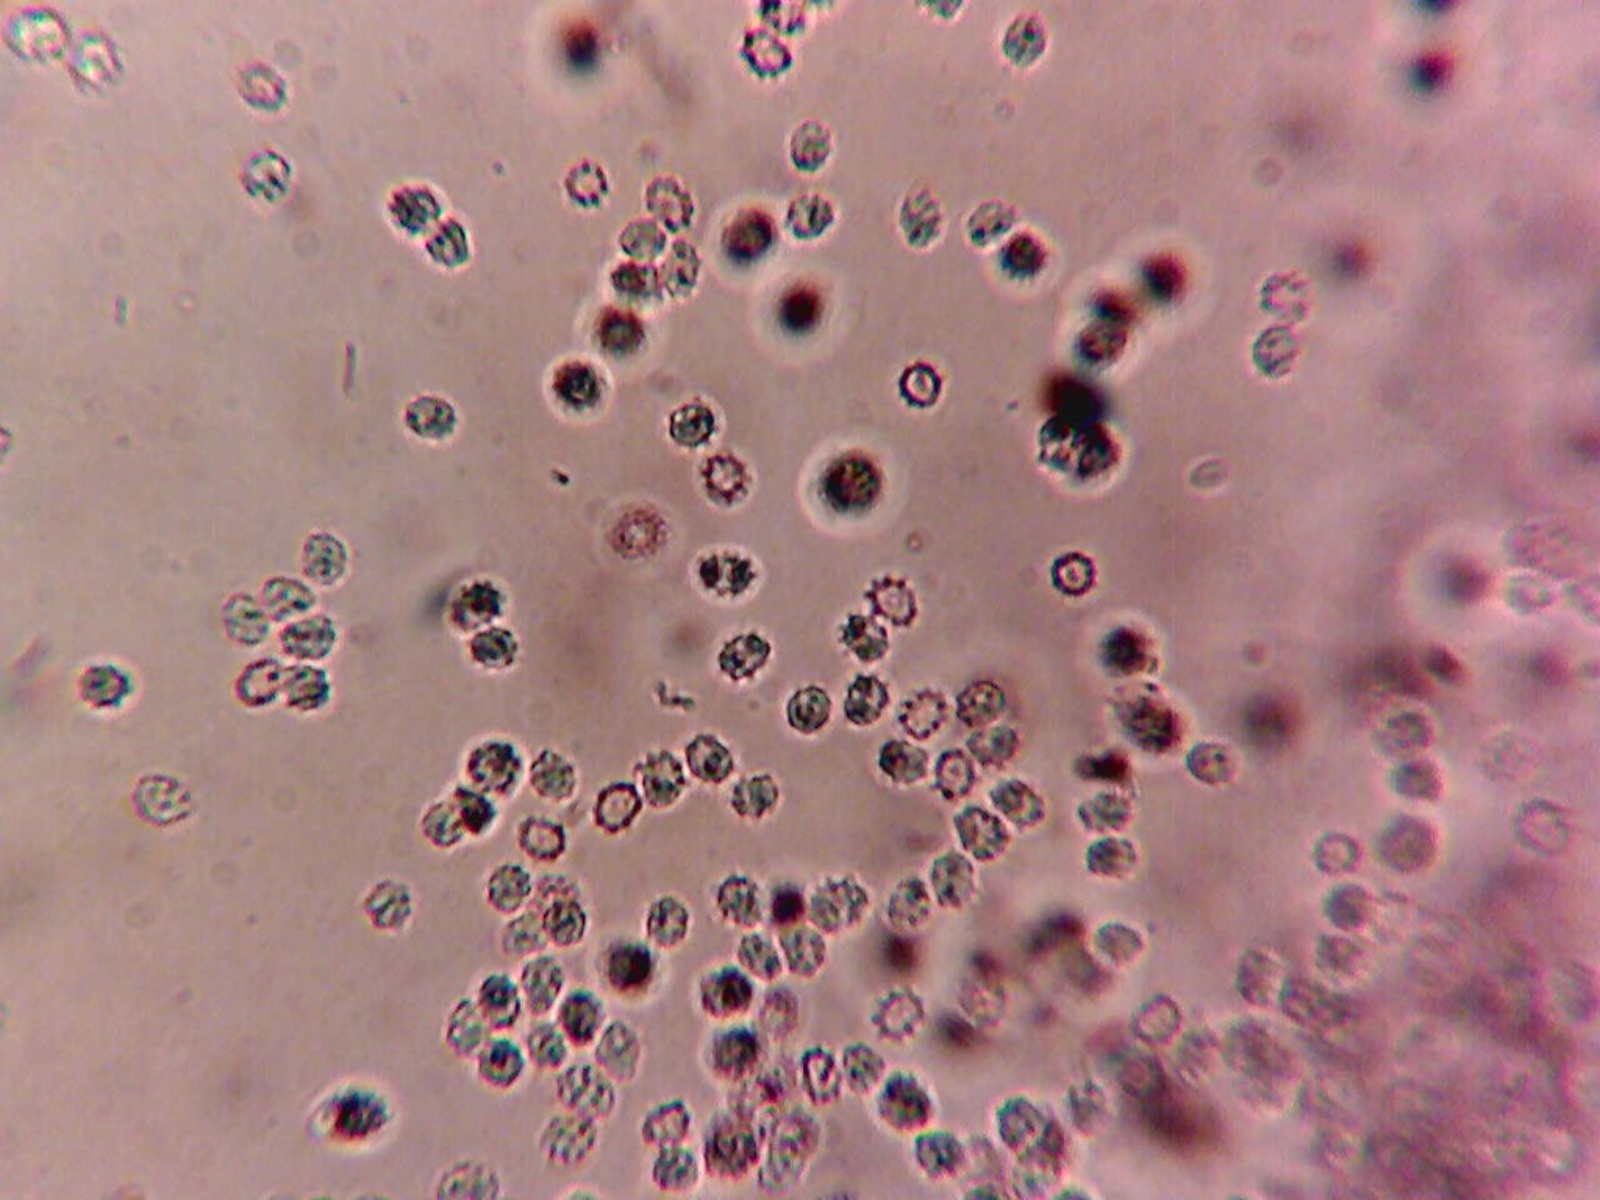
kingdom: Fungi
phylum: Basidiomycota
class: Agaricomycetes
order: Trechisporales
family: Sistotremataceae
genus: Trechispora
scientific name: Trechispora hymenocystis
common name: poret vathinde
